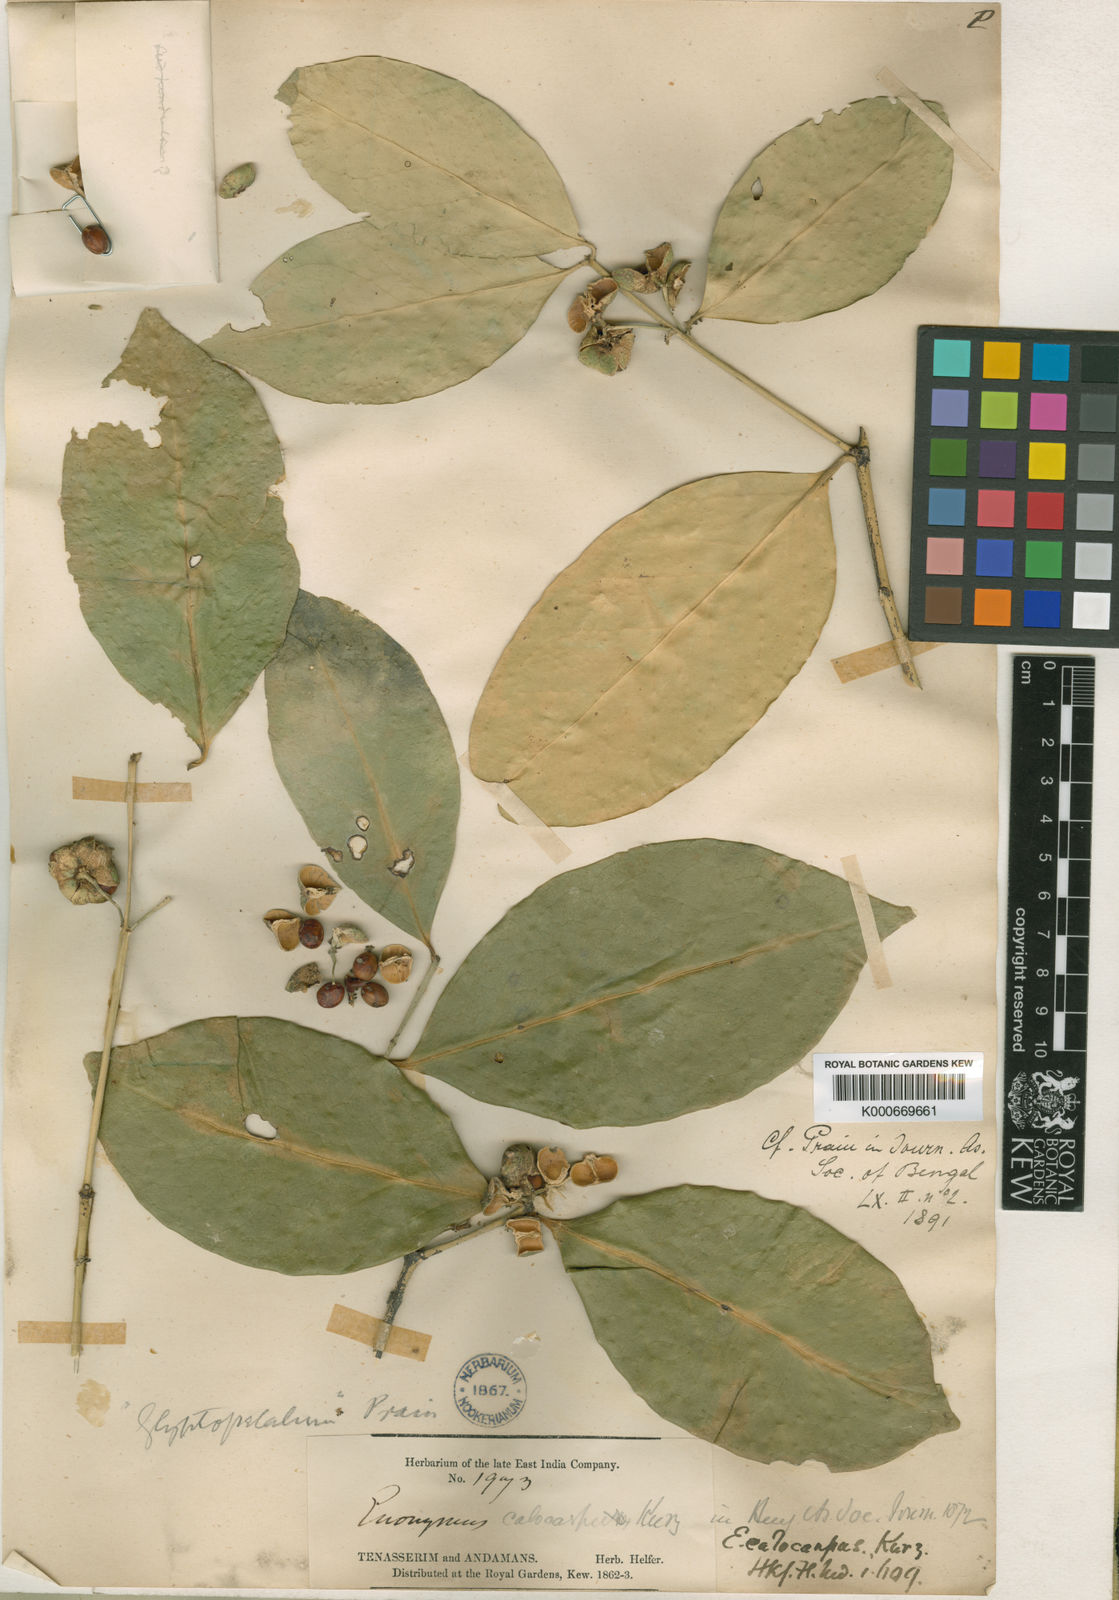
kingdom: Plantae
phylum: Tracheophyta
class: Magnoliopsida
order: Celastrales
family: Celastraceae
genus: Euonymus
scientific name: Euonymus calocarpus
